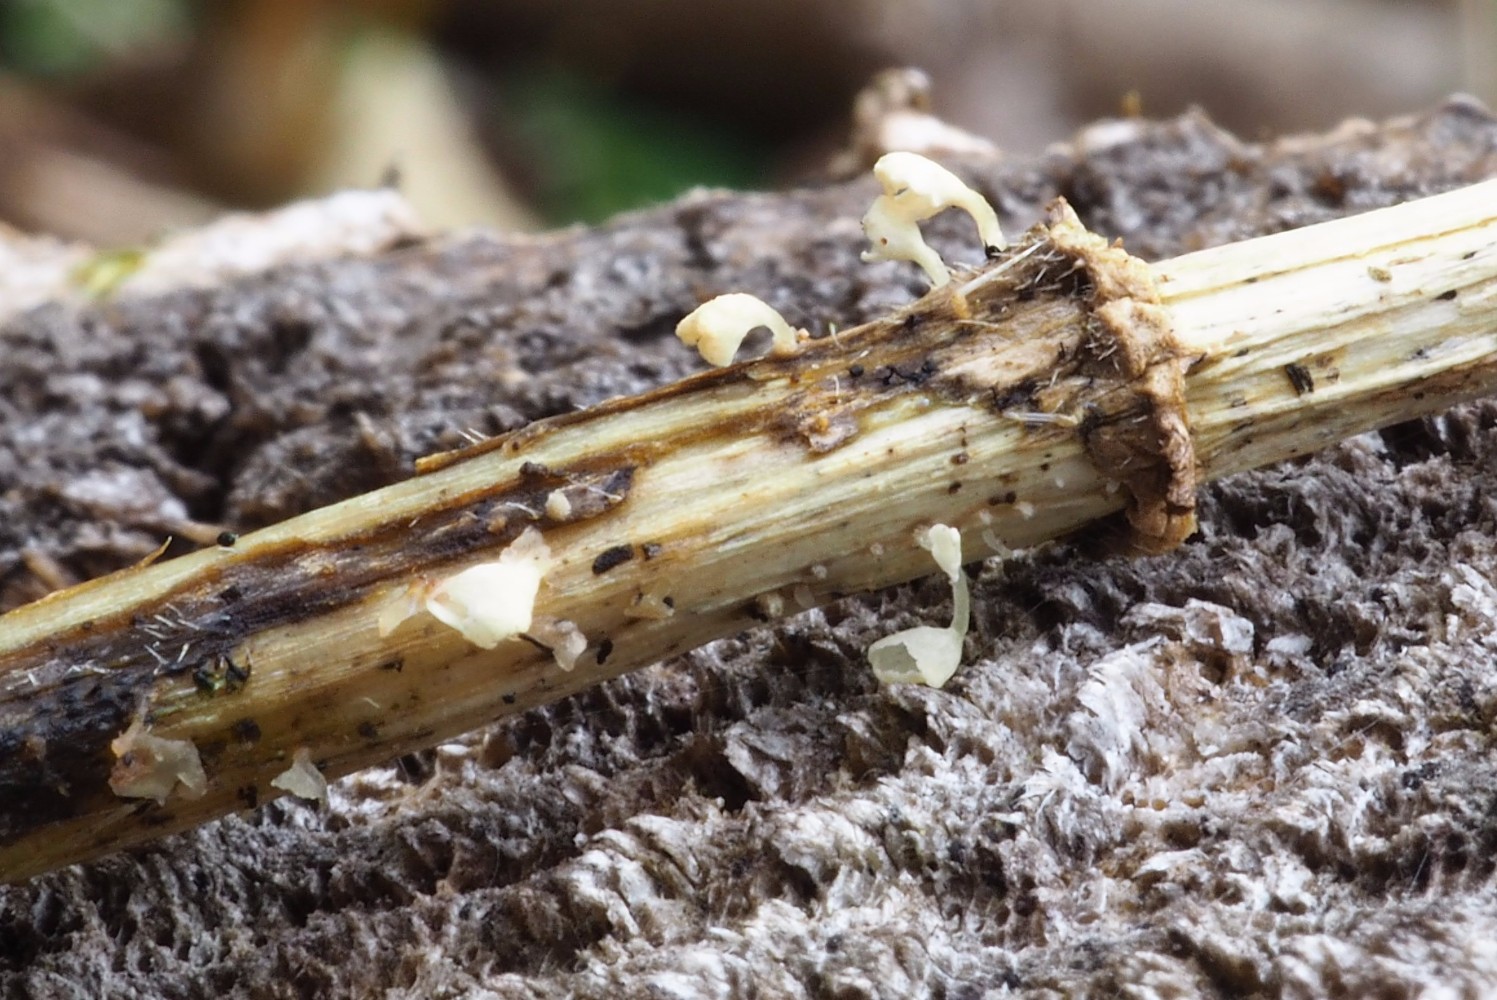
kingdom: Fungi
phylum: Basidiomycota
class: Agaricomycetes
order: Agaricales
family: Marasmiaceae
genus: Calyptella
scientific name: Calyptella capula
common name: hvidlig nældehue
